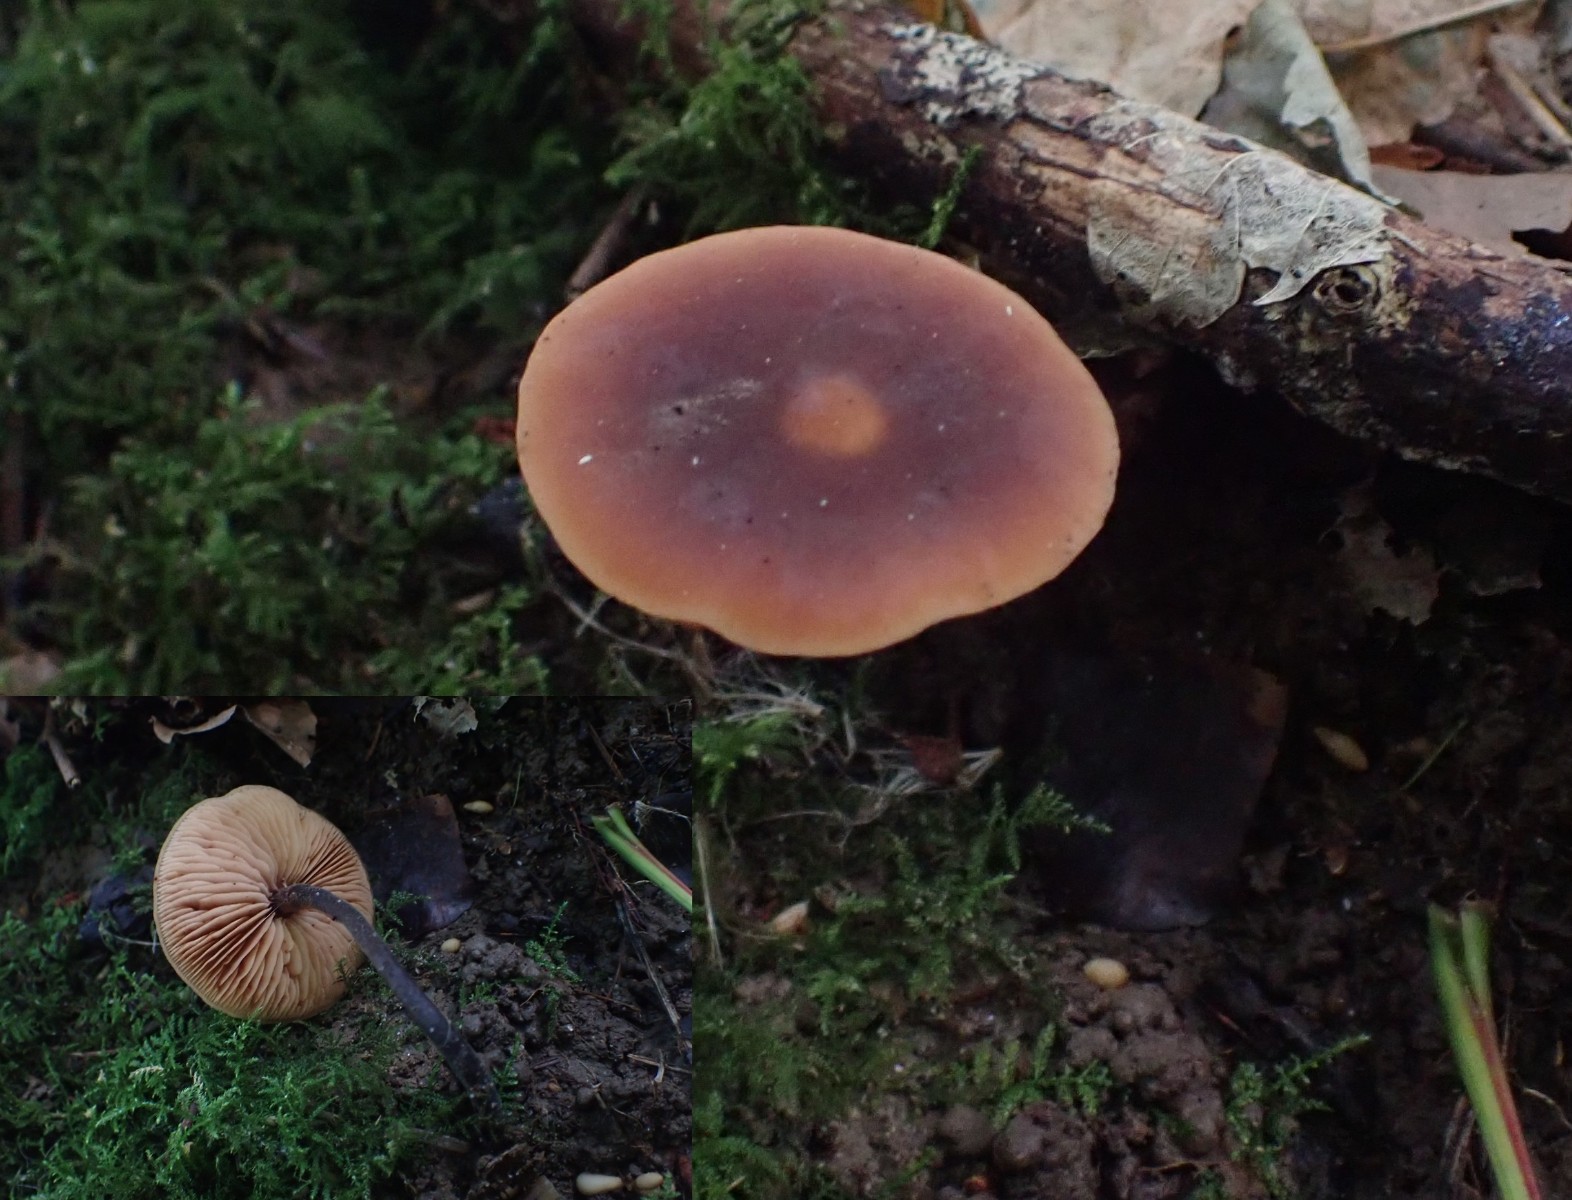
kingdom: Fungi
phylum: Basidiomycota
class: Agaricomycetes
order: Agaricales
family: Macrocystidiaceae
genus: Macrocystidia
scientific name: Macrocystidia cucumis
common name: agurkehat
